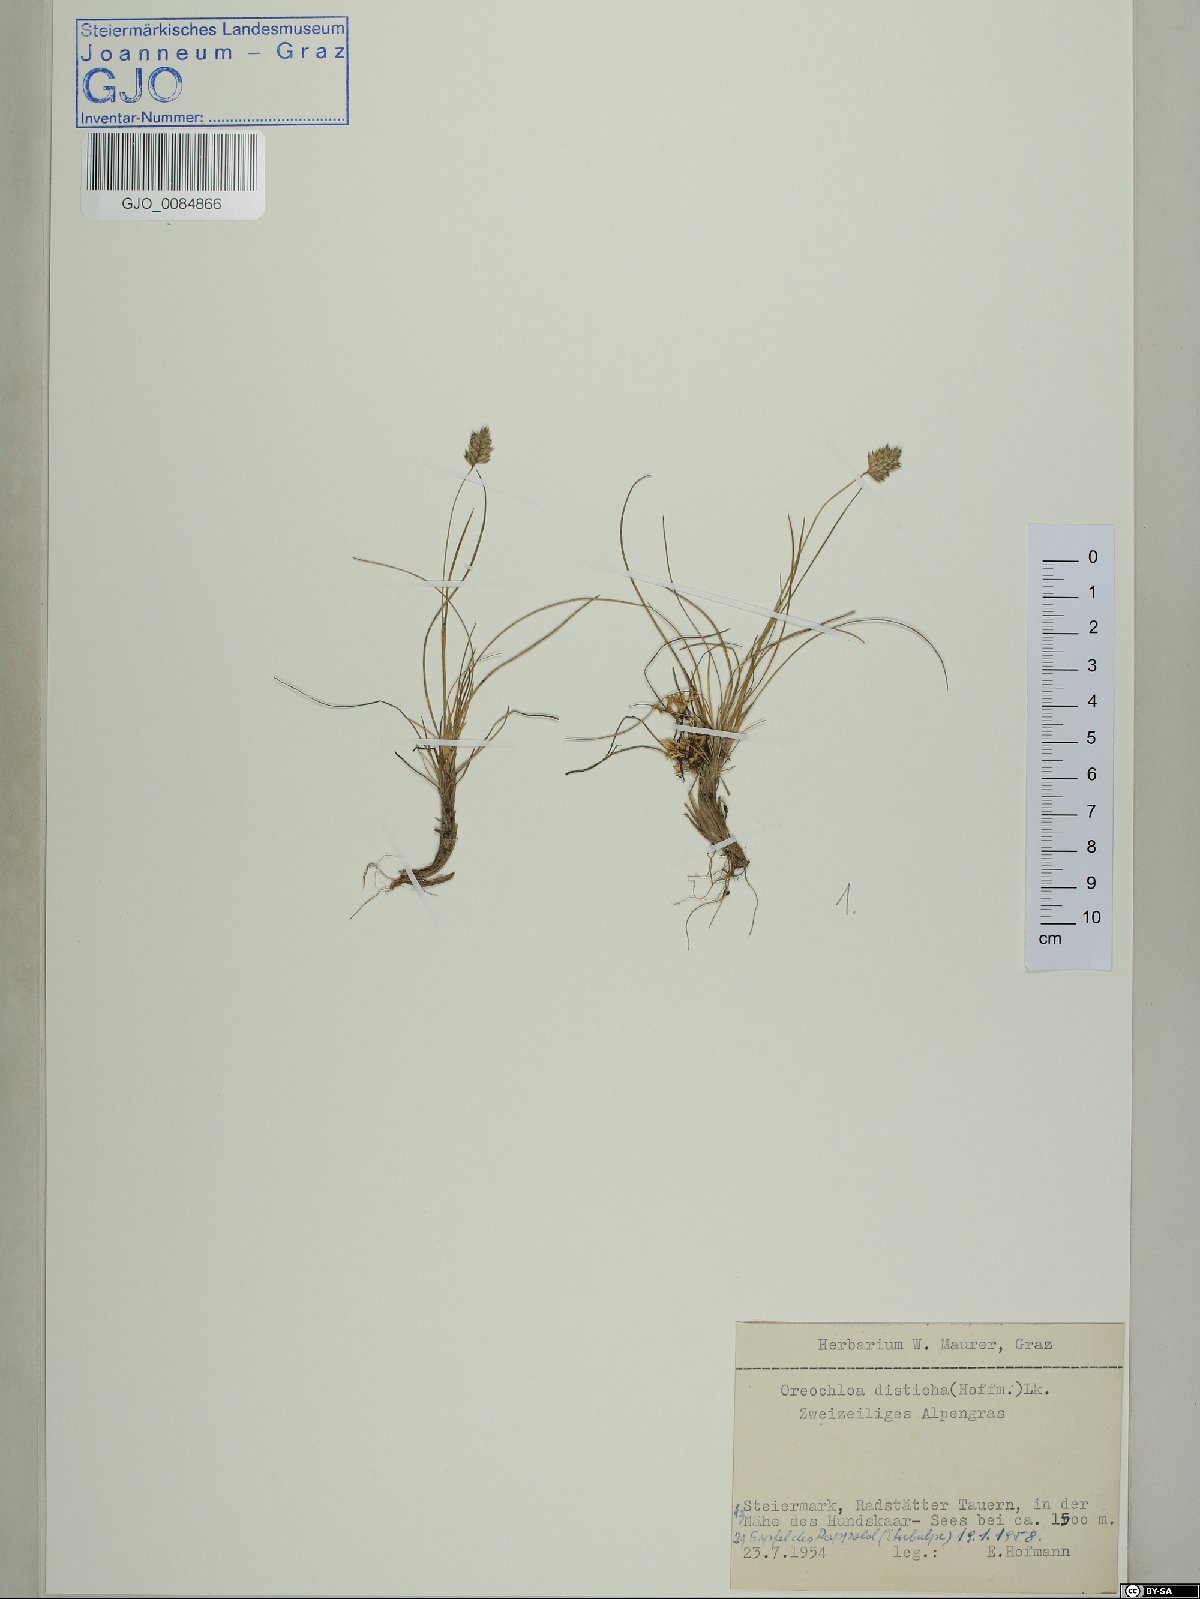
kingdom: Plantae
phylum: Tracheophyta
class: Liliopsida
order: Poales
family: Poaceae
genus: Oreochloa
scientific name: Oreochloa disticha
